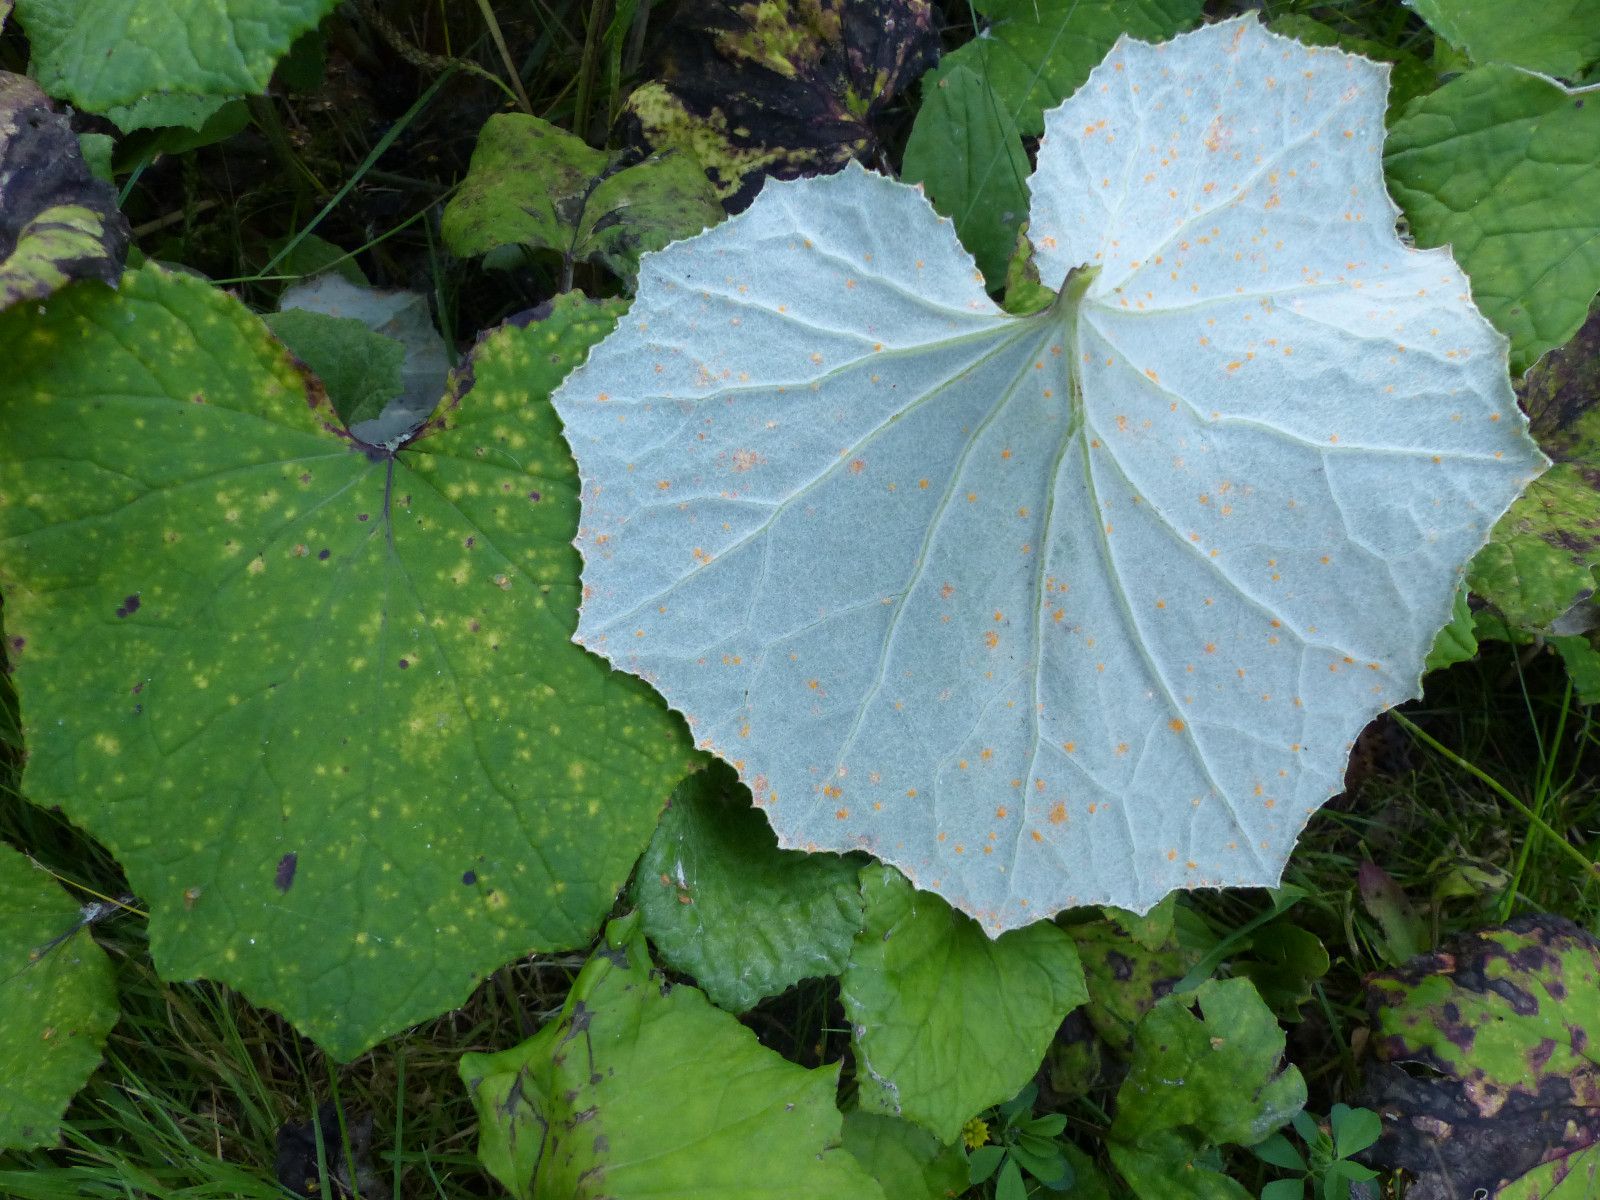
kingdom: Fungi
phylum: Basidiomycota
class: Pucciniomycetes
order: Pucciniales
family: Coleosporiaceae
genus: Coleosporium
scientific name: Coleosporium tussilaginis
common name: almindelig fyrrenålerust
